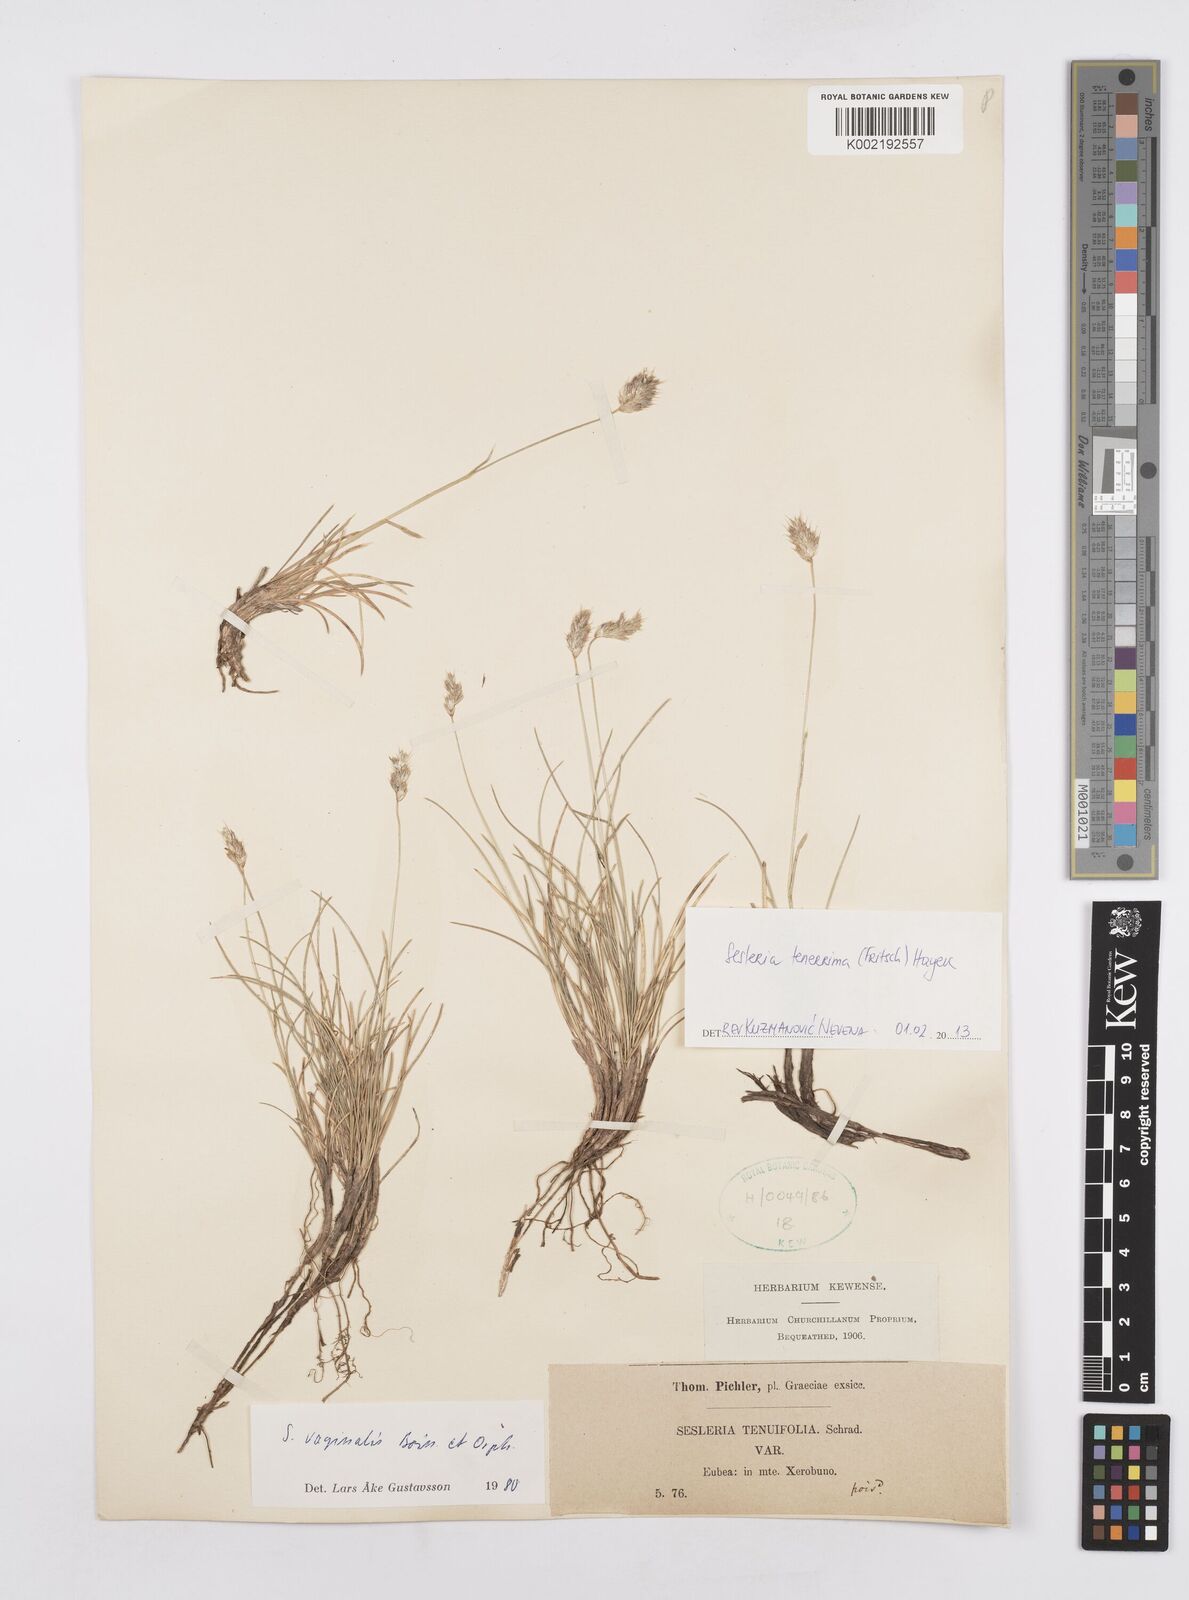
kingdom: Plantae
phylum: Tracheophyta
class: Liliopsida
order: Poales
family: Poaceae
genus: Sesleria
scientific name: Sesleria tenerrima
